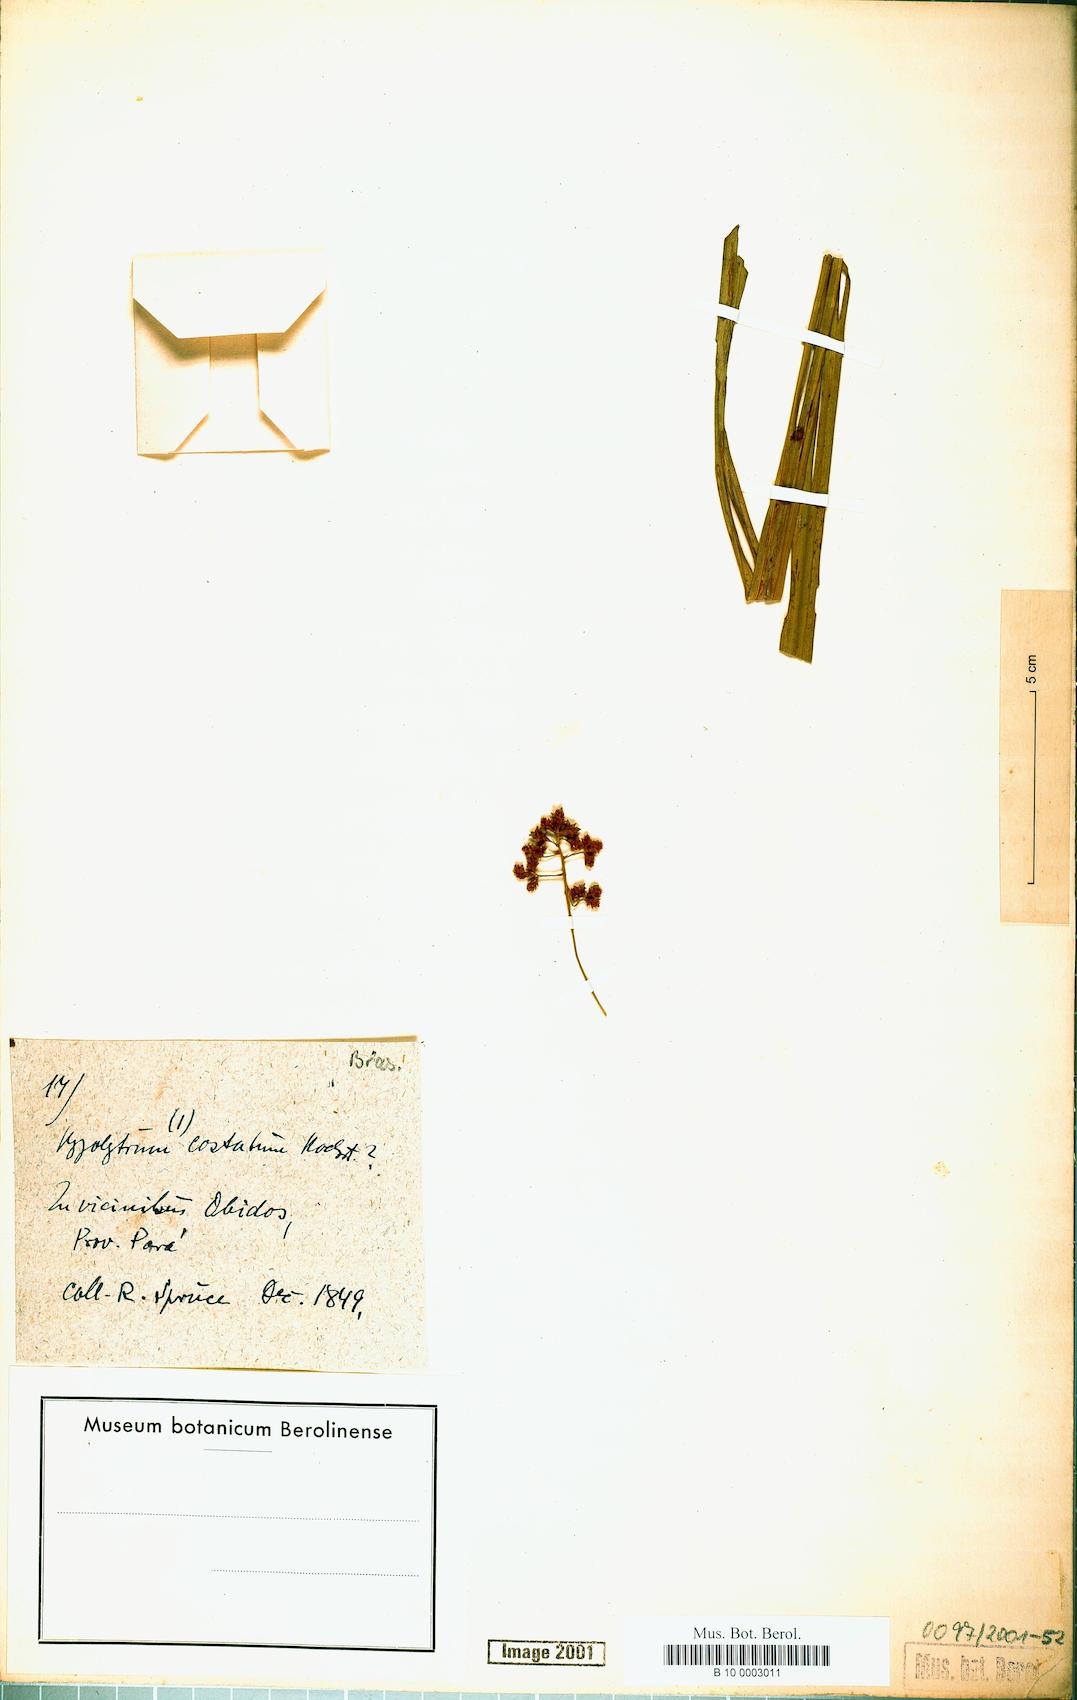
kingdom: Plantae
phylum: Tracheophyta
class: Liliopsida
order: Poales
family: Cyperaceae
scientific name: Cyperaceae
